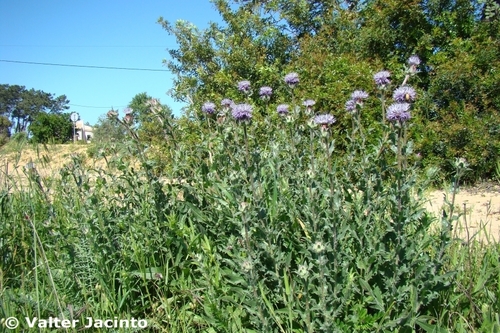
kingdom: Plantae
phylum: Tracheophyta
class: Magnoliopsida
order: Asterales
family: Asteraceae
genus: Carduncellus
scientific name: Carduncellus caeruleus
